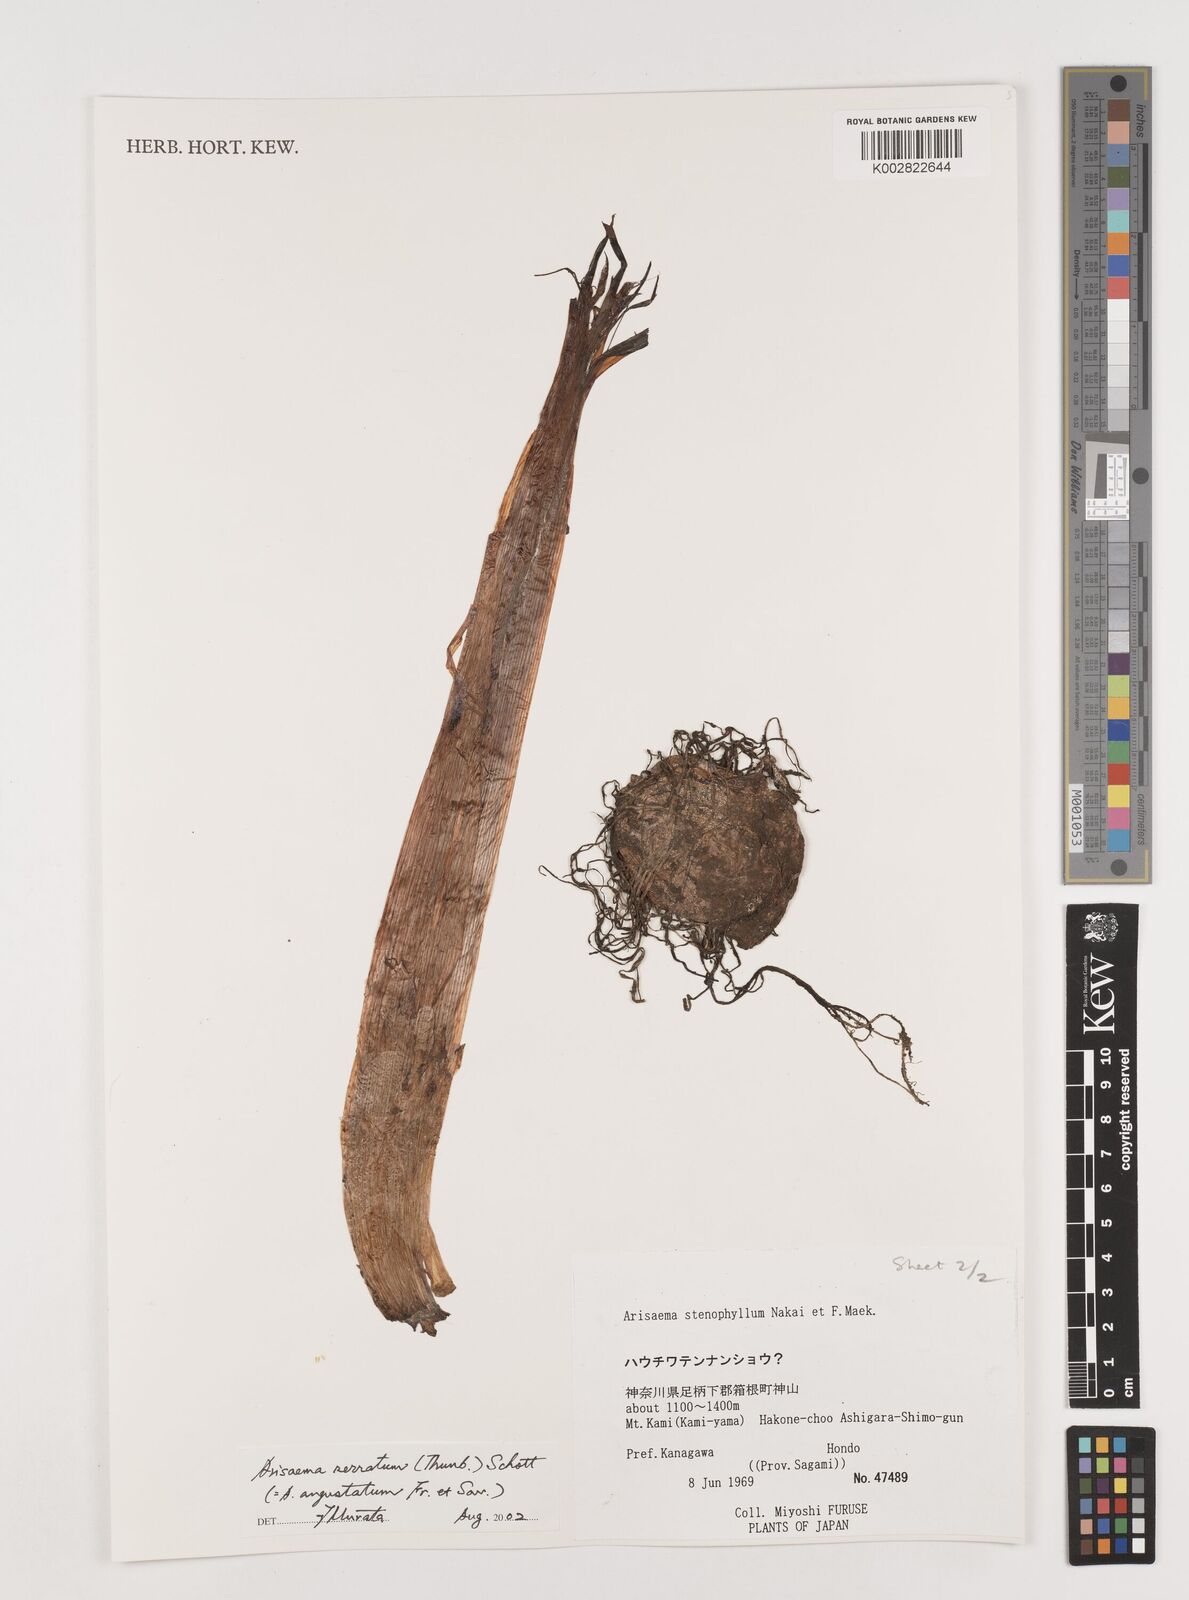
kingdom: Plantae
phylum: Tracheophyta
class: Liliopsida
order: Alismatales
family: Araceae
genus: Arisaema
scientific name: Arisaema serratum
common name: Japanese arisaema
